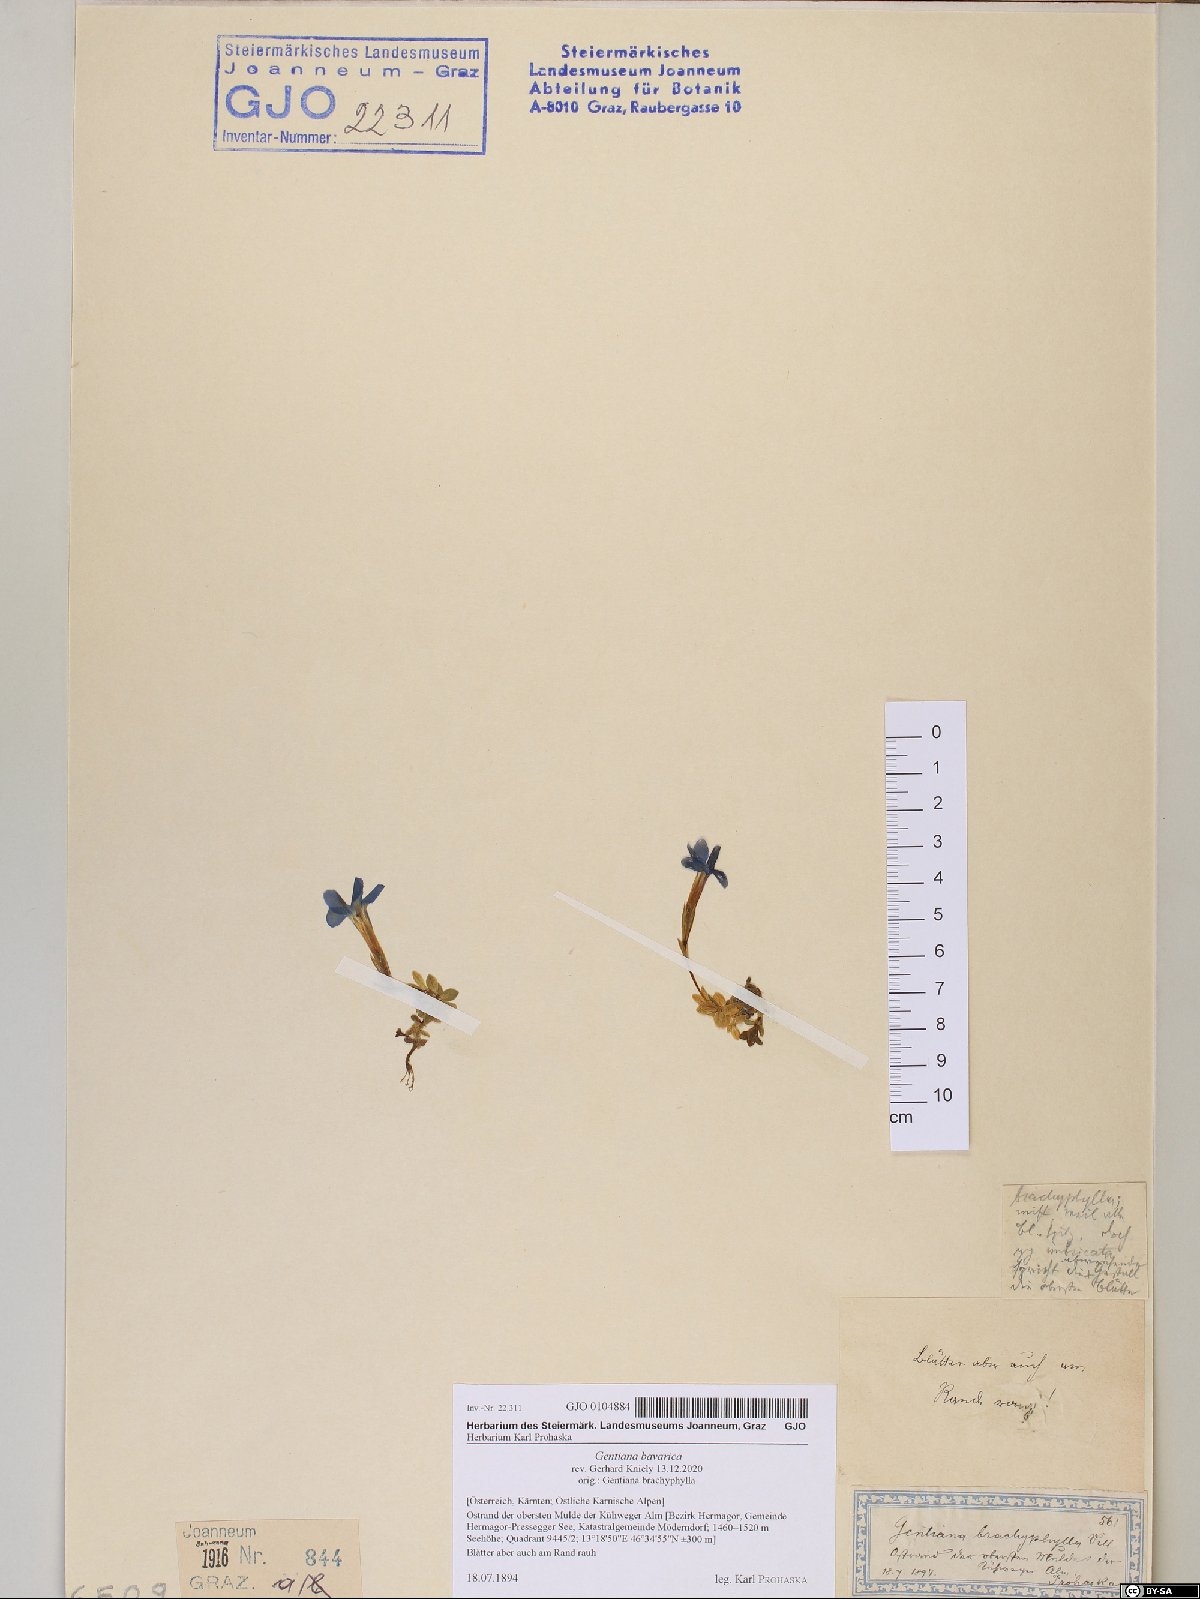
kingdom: Plantae
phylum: Tracheophyta
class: Magnoliopsida
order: Gentianales
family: Gentianaceae
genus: Gentiana
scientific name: Gentiana bavarica
